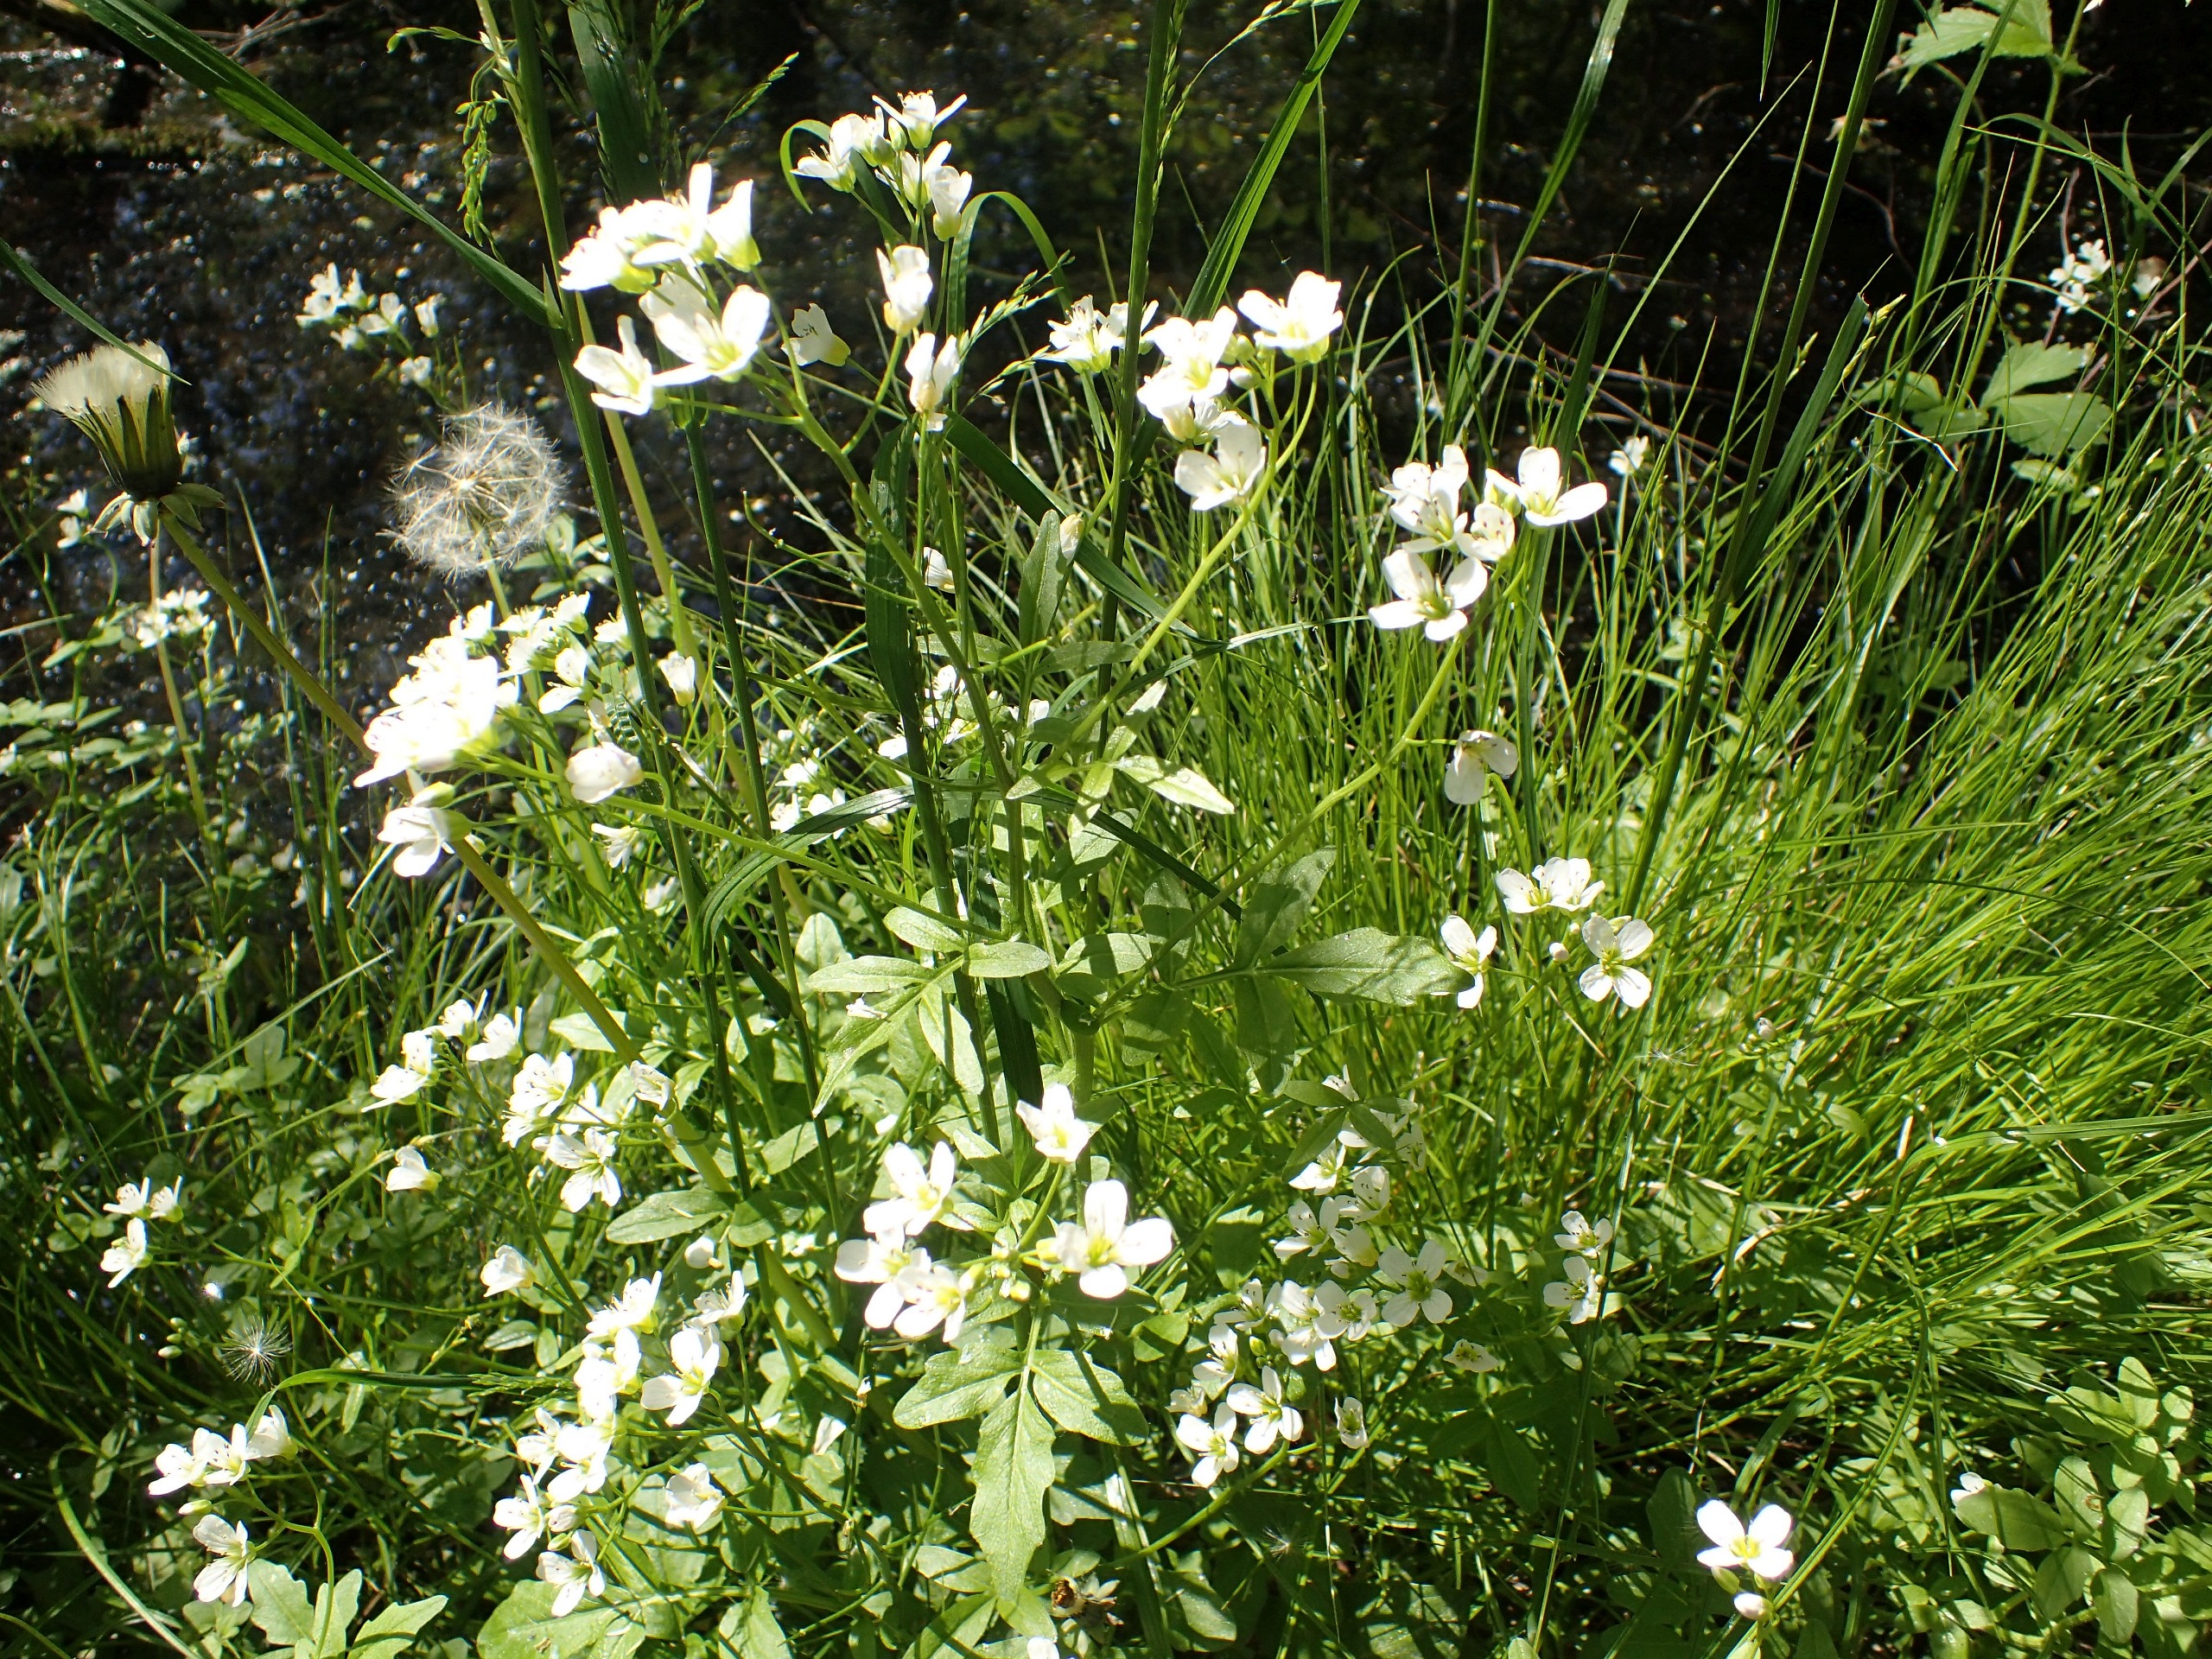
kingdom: Plantae
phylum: Tracheophyta
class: Magnoliopsida
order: Brassicales
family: Brassicaceae
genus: Cardamine
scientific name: Cardamine amara
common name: Vandkarse
